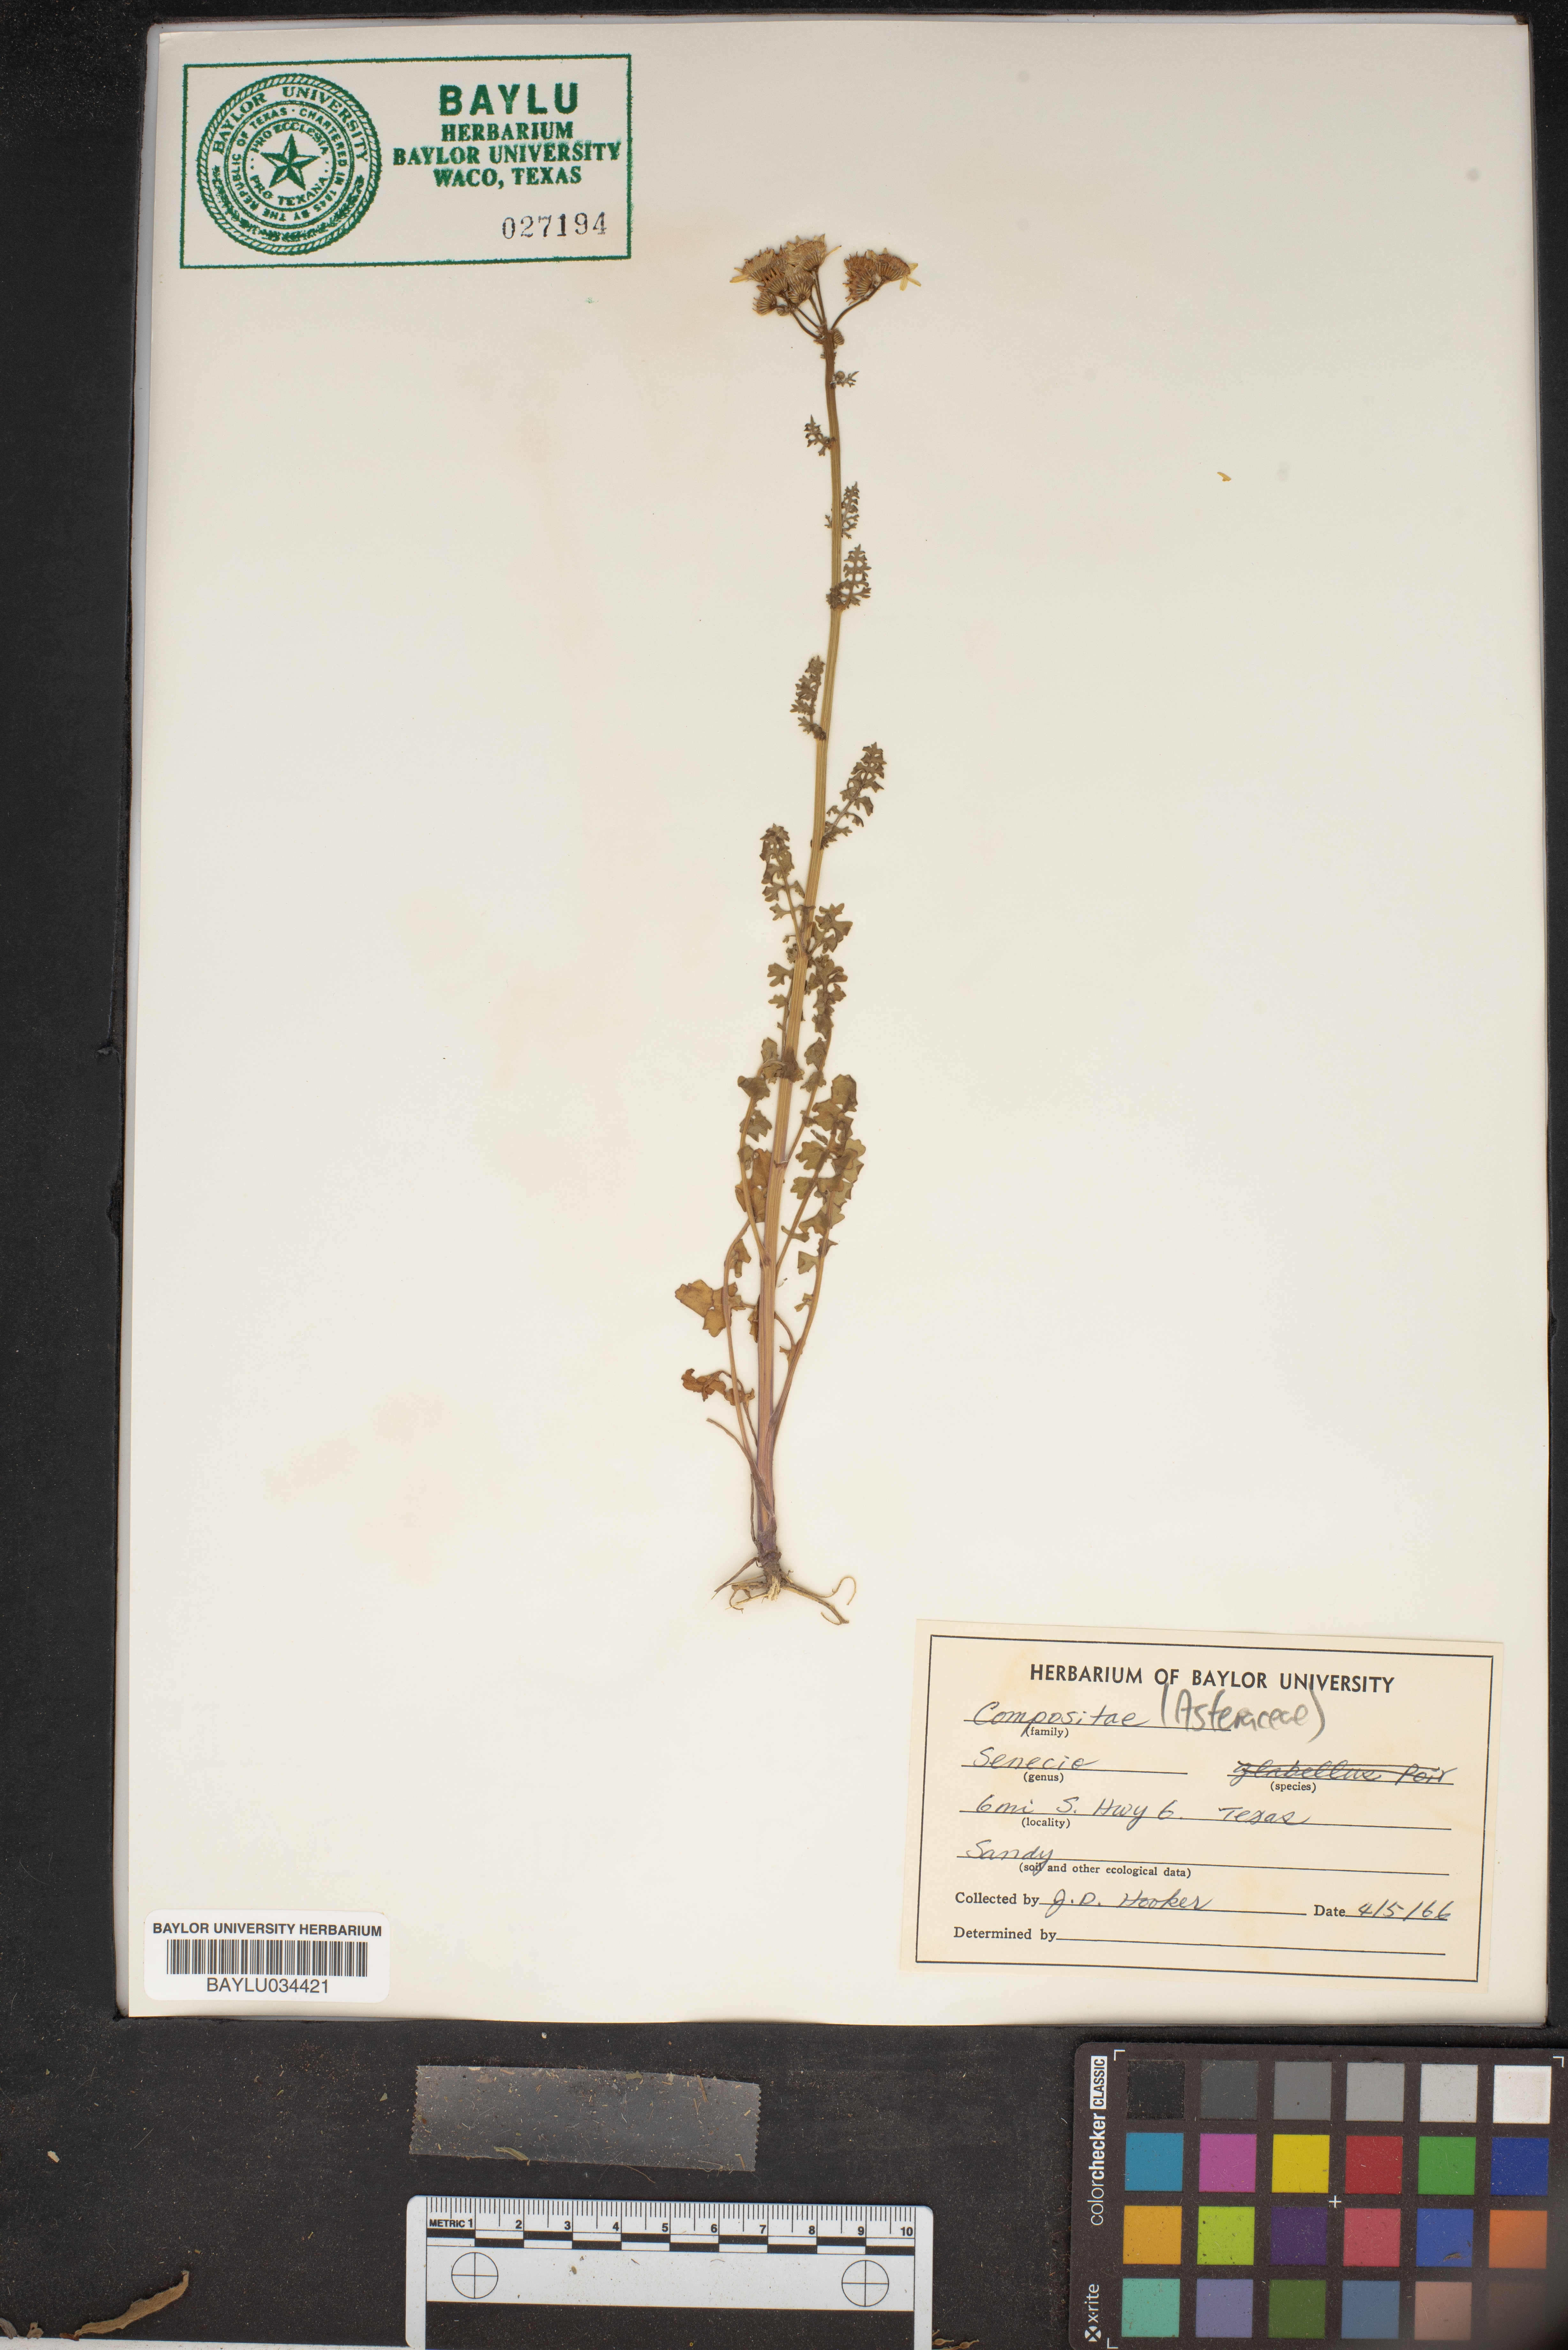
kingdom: Plantae
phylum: Tracheophyta
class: Magnoliopsida
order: Asterales
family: Asteraceae
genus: Tephroseris
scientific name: Tephroseris praticola
